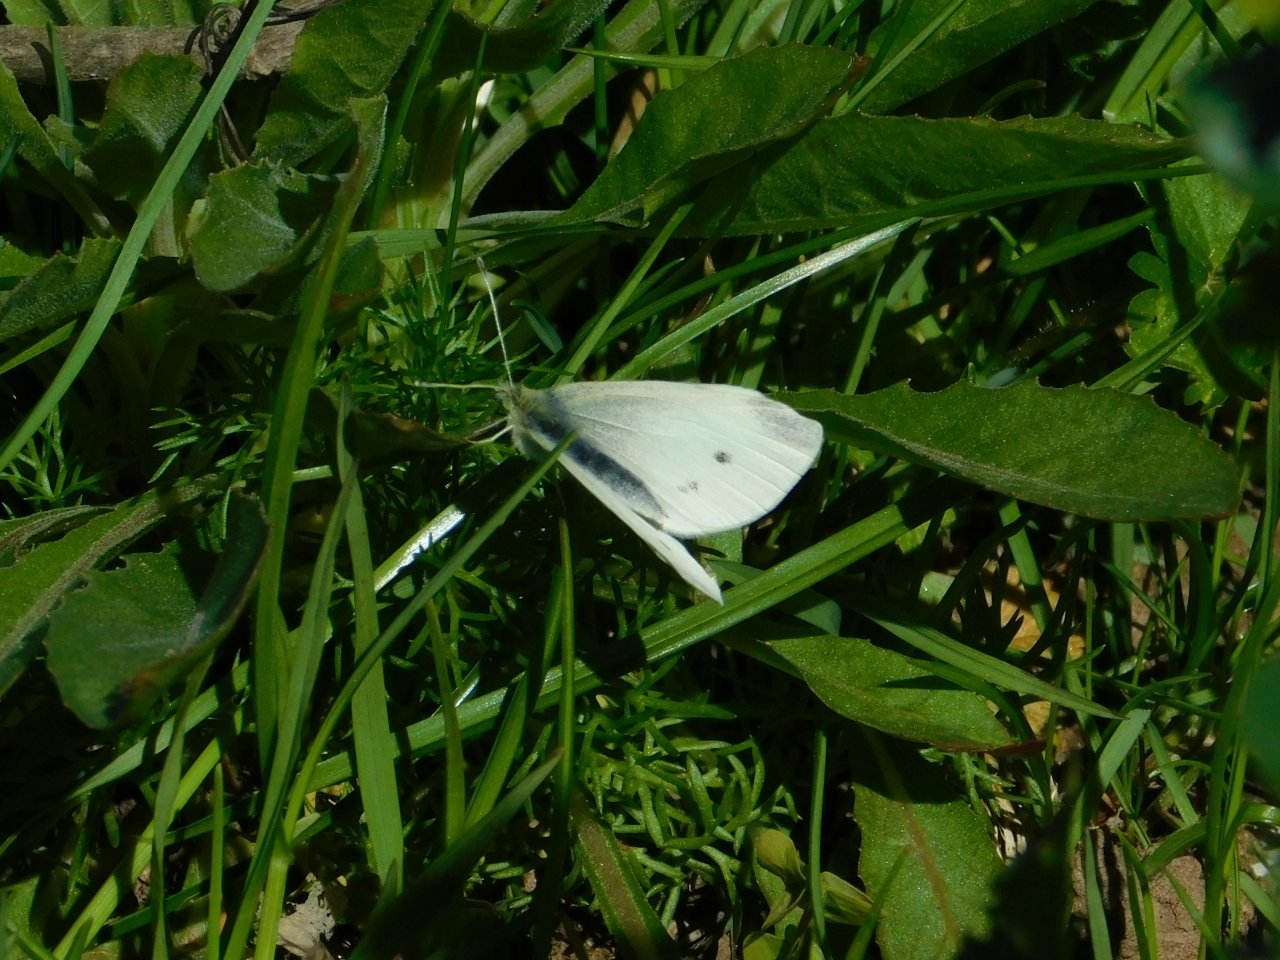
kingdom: Animalia
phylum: Arthropoda
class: Insecta
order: Lepidoptera
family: Pieridae
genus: Pieris
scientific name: Pieris rapae
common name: Cabbage White
